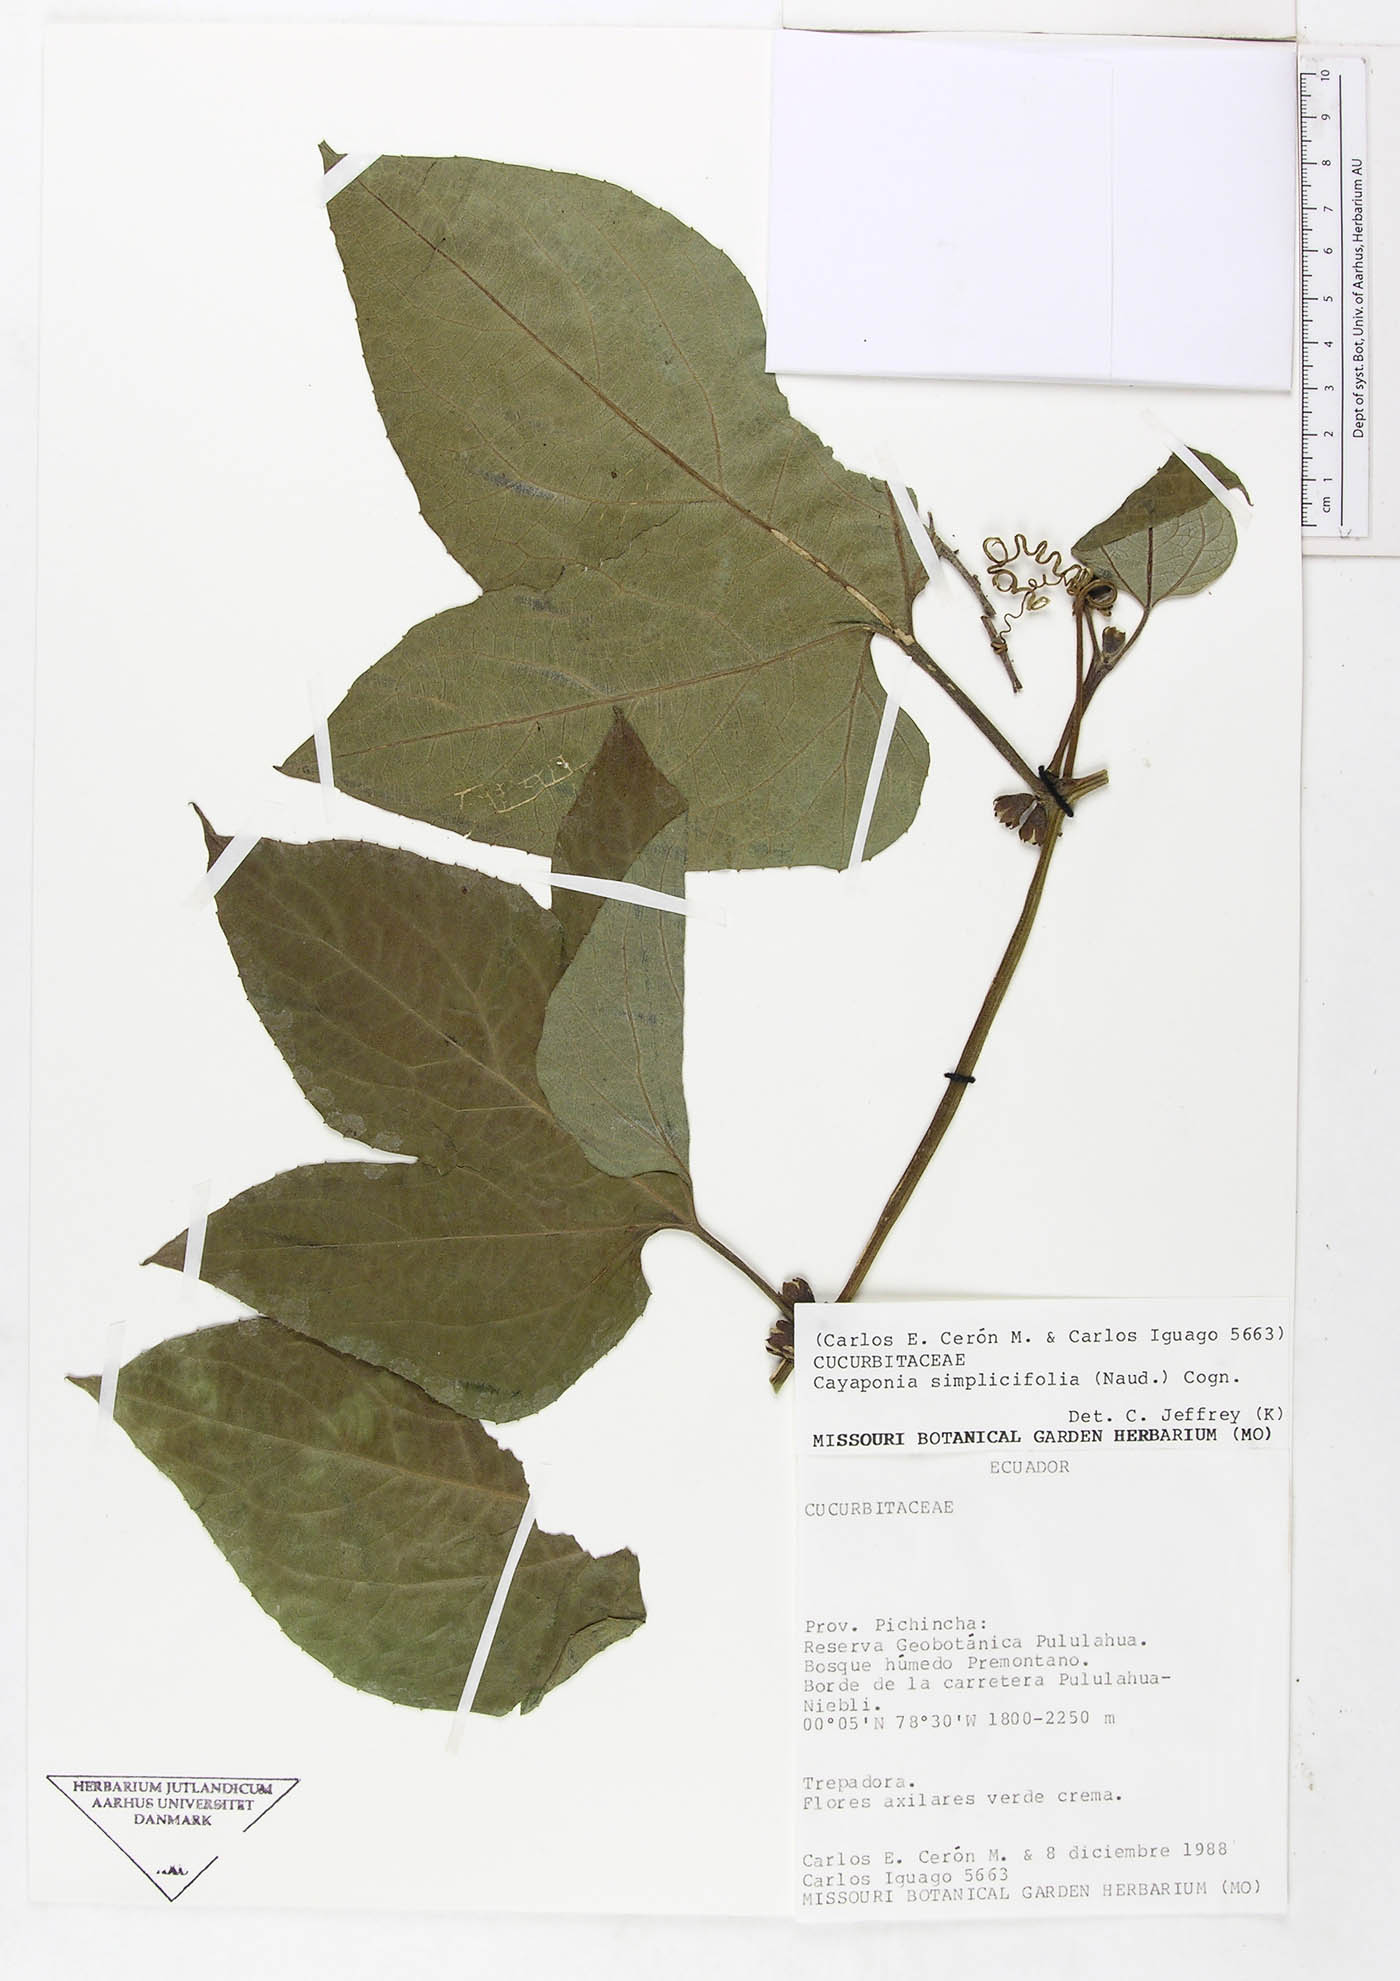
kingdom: Plantae
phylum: Tracheophyta
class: Magnoliopsida
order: Cucurbitales
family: Cucurbitaceae
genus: Cayaponia
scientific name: Cayaponia
